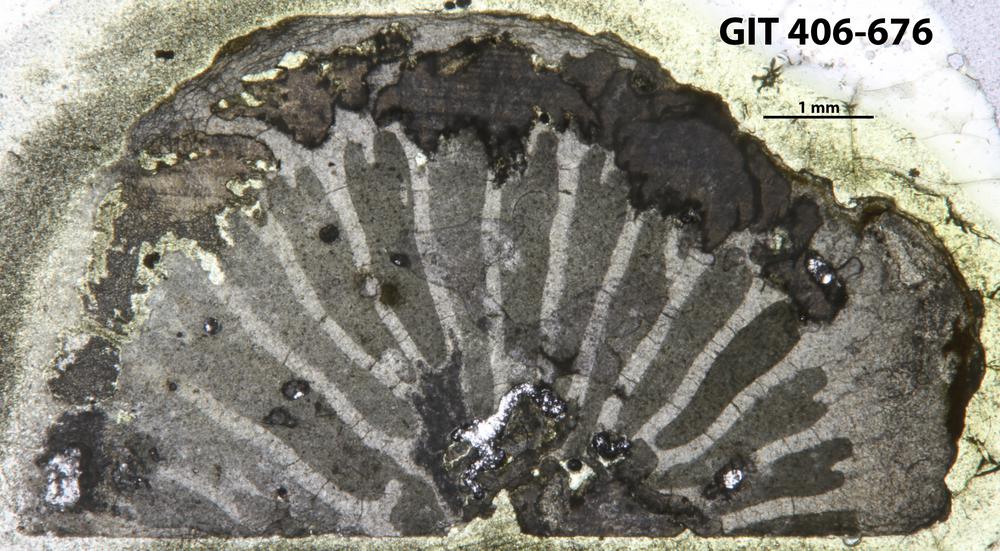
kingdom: Animalia
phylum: Cnidaria
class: Anthozoa
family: Streptelasmatidae
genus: Leolasma
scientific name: Leolasma
